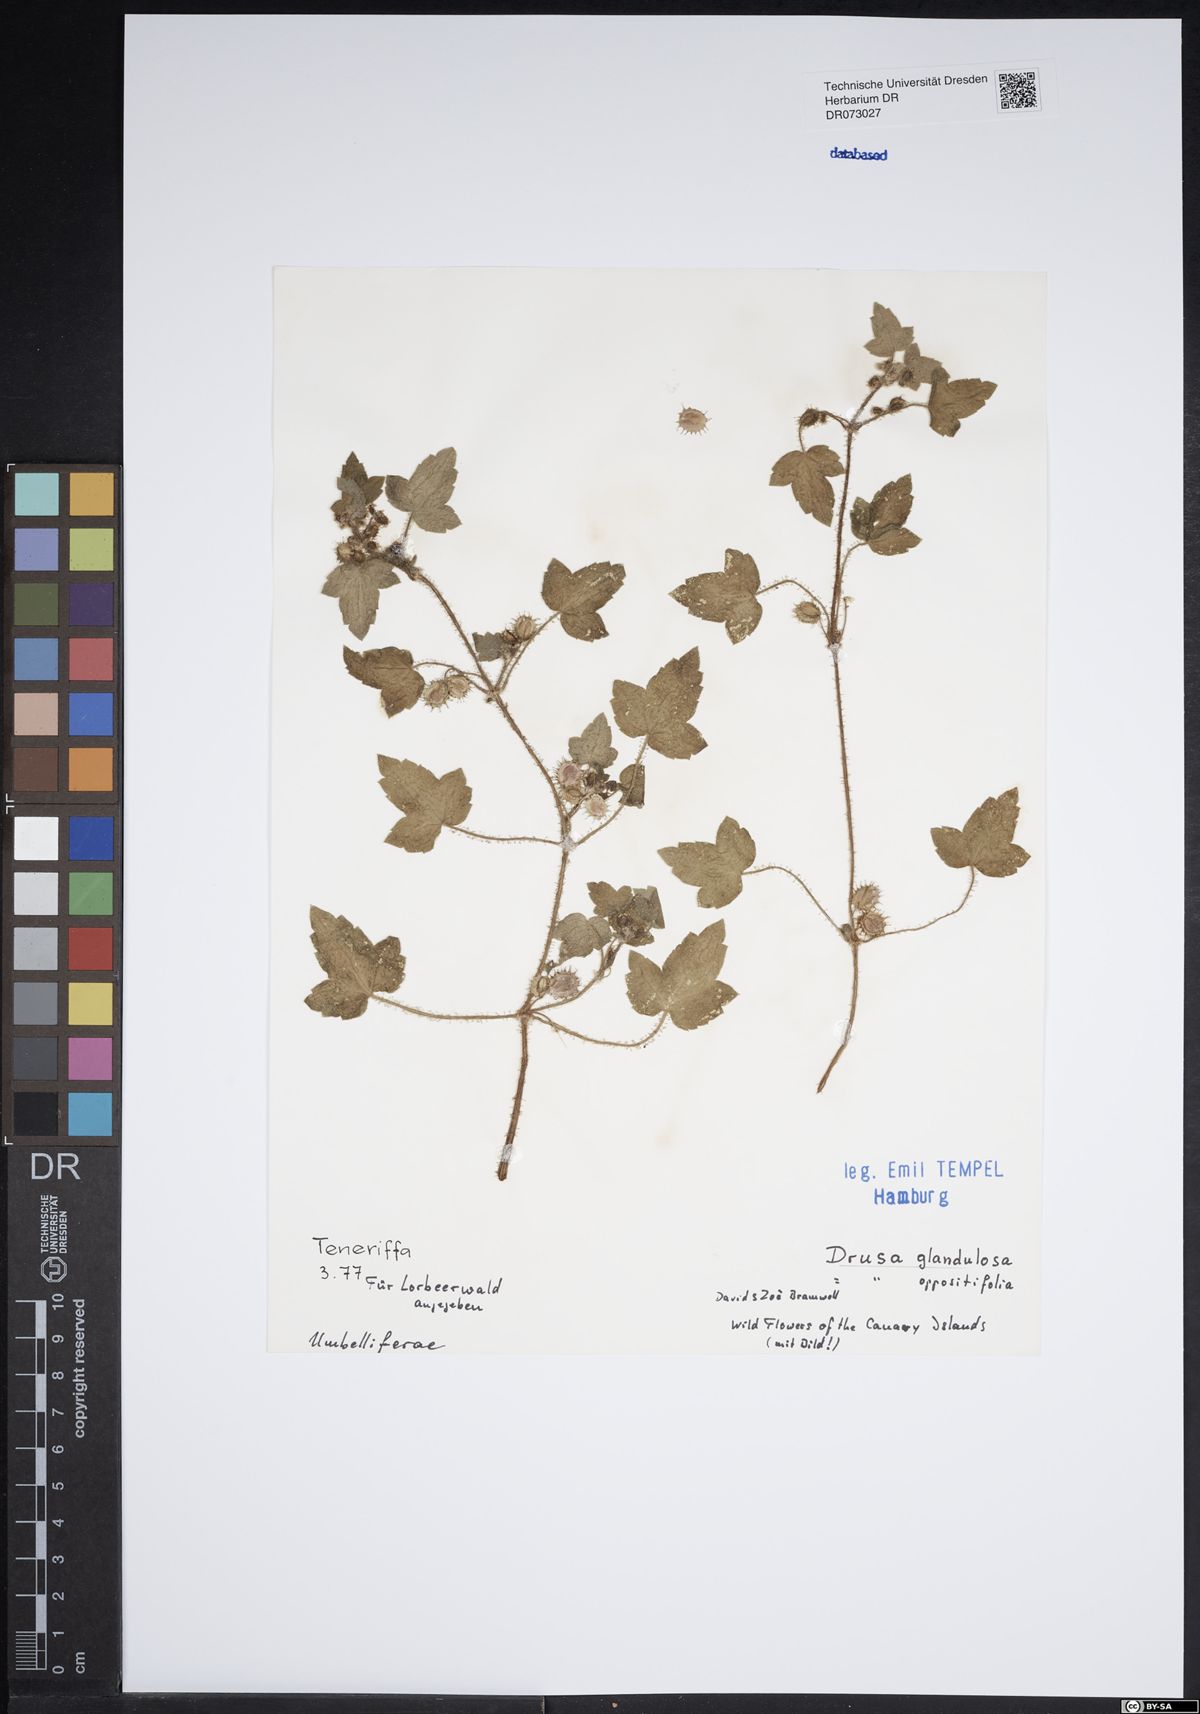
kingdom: Plantae
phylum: Tracheophyta
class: Magnoliopsida
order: Apiales
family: Apiaceae
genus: Bupleurum
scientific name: Bupleurum fruticosum
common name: Shrubby hare's-ear
